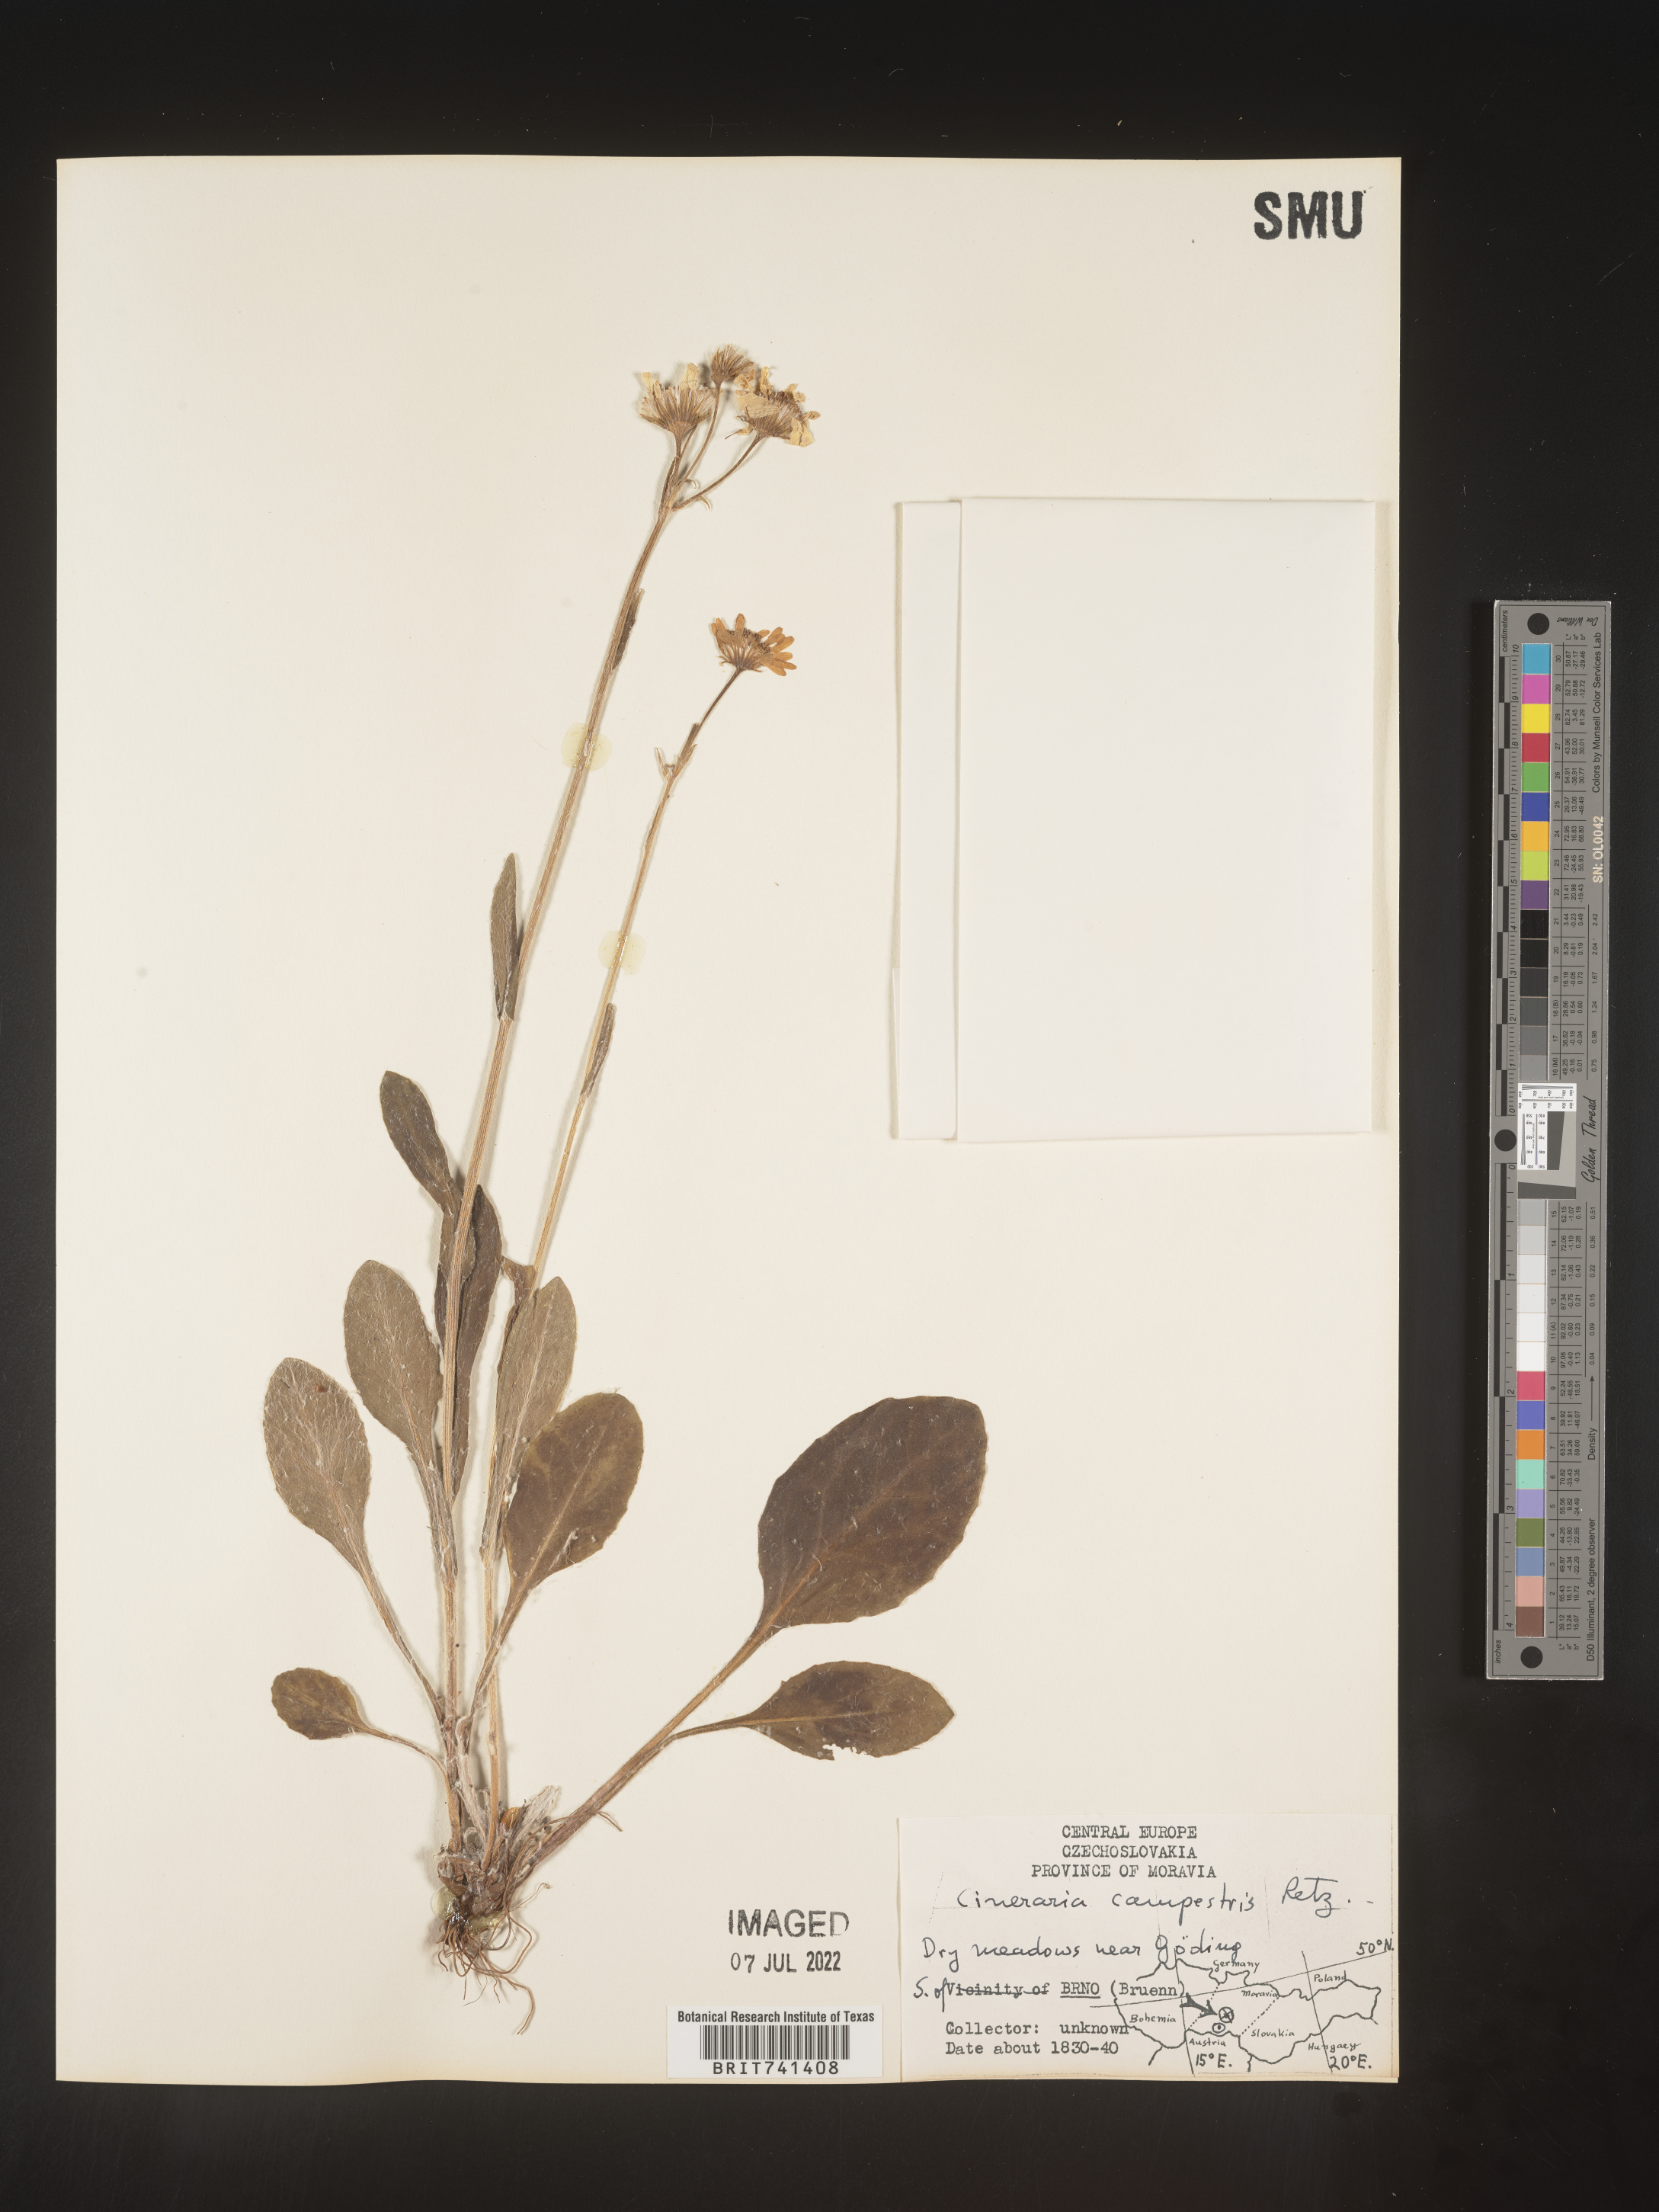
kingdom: Plantae
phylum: Tracheophyta
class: Magnoliopsida
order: Asterales
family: Asteraceae
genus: Senecio
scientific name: Senecio
